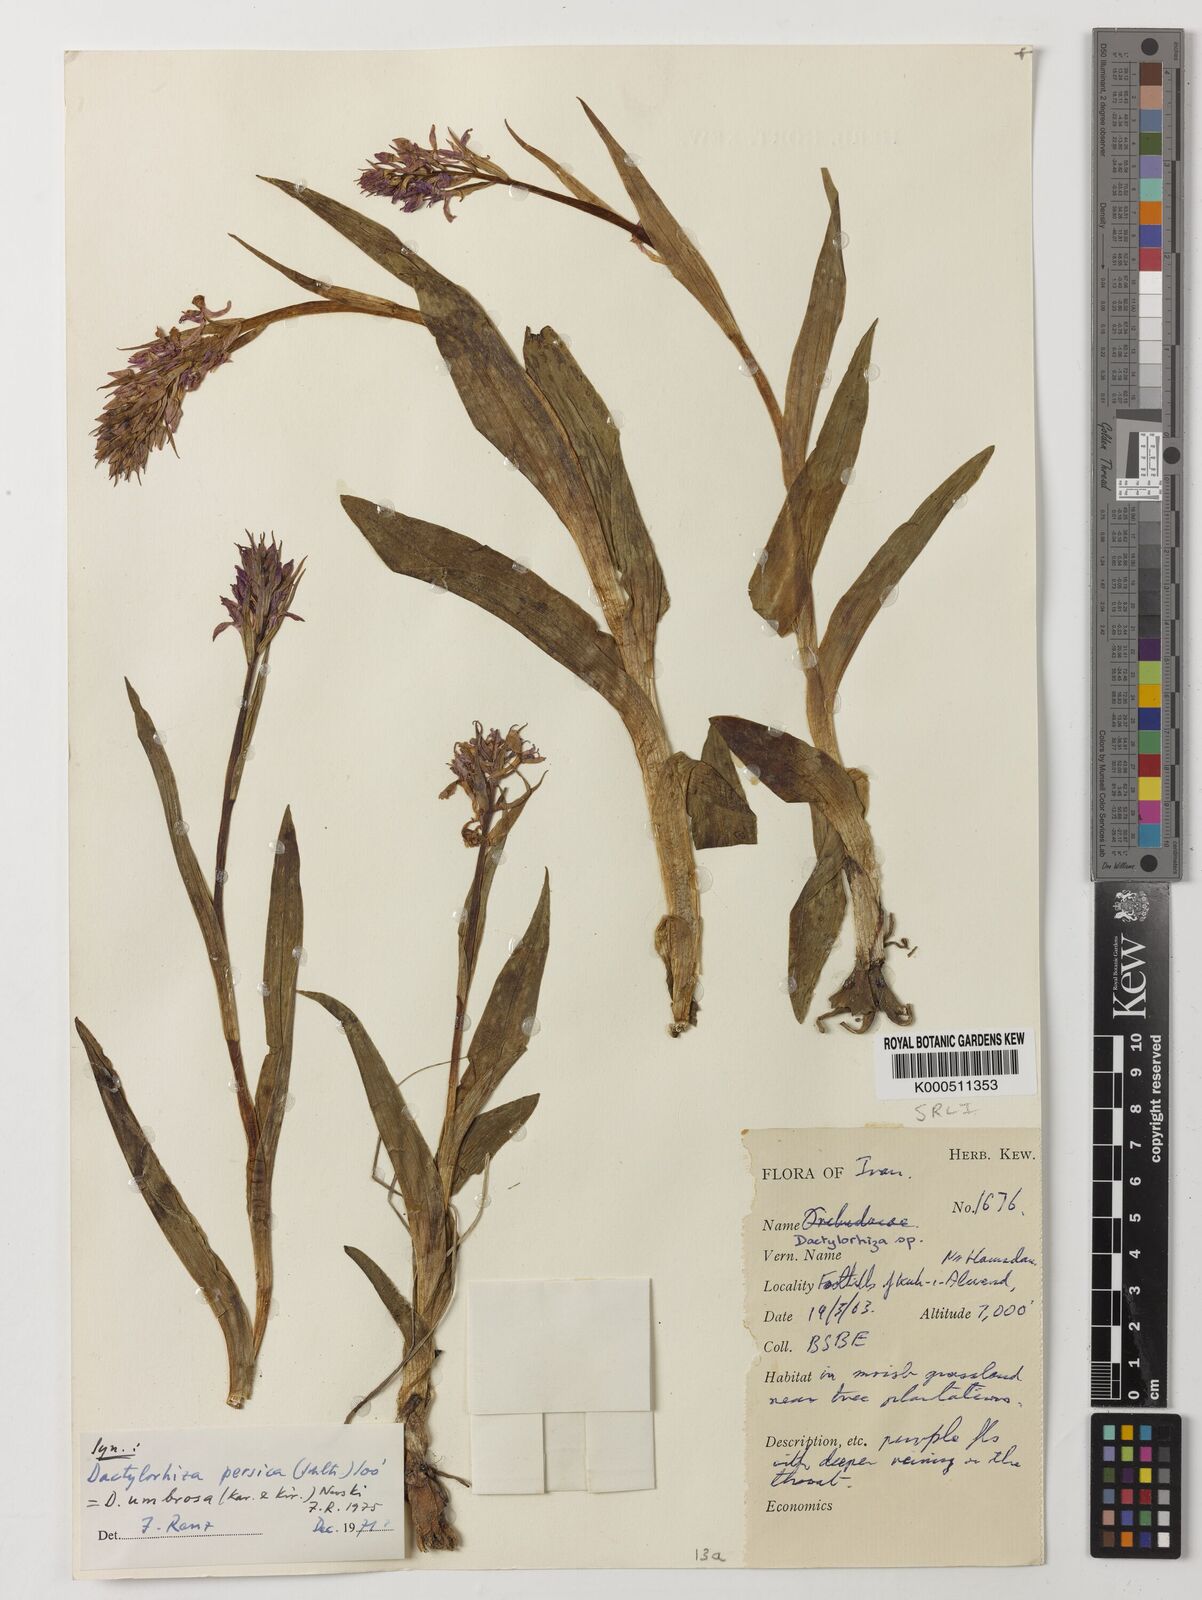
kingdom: Plantae
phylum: Tracheophyta
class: Liliopsida
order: Asparagales
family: Orchidaceae
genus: Dactylorhiza
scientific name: Dactylorhiza
